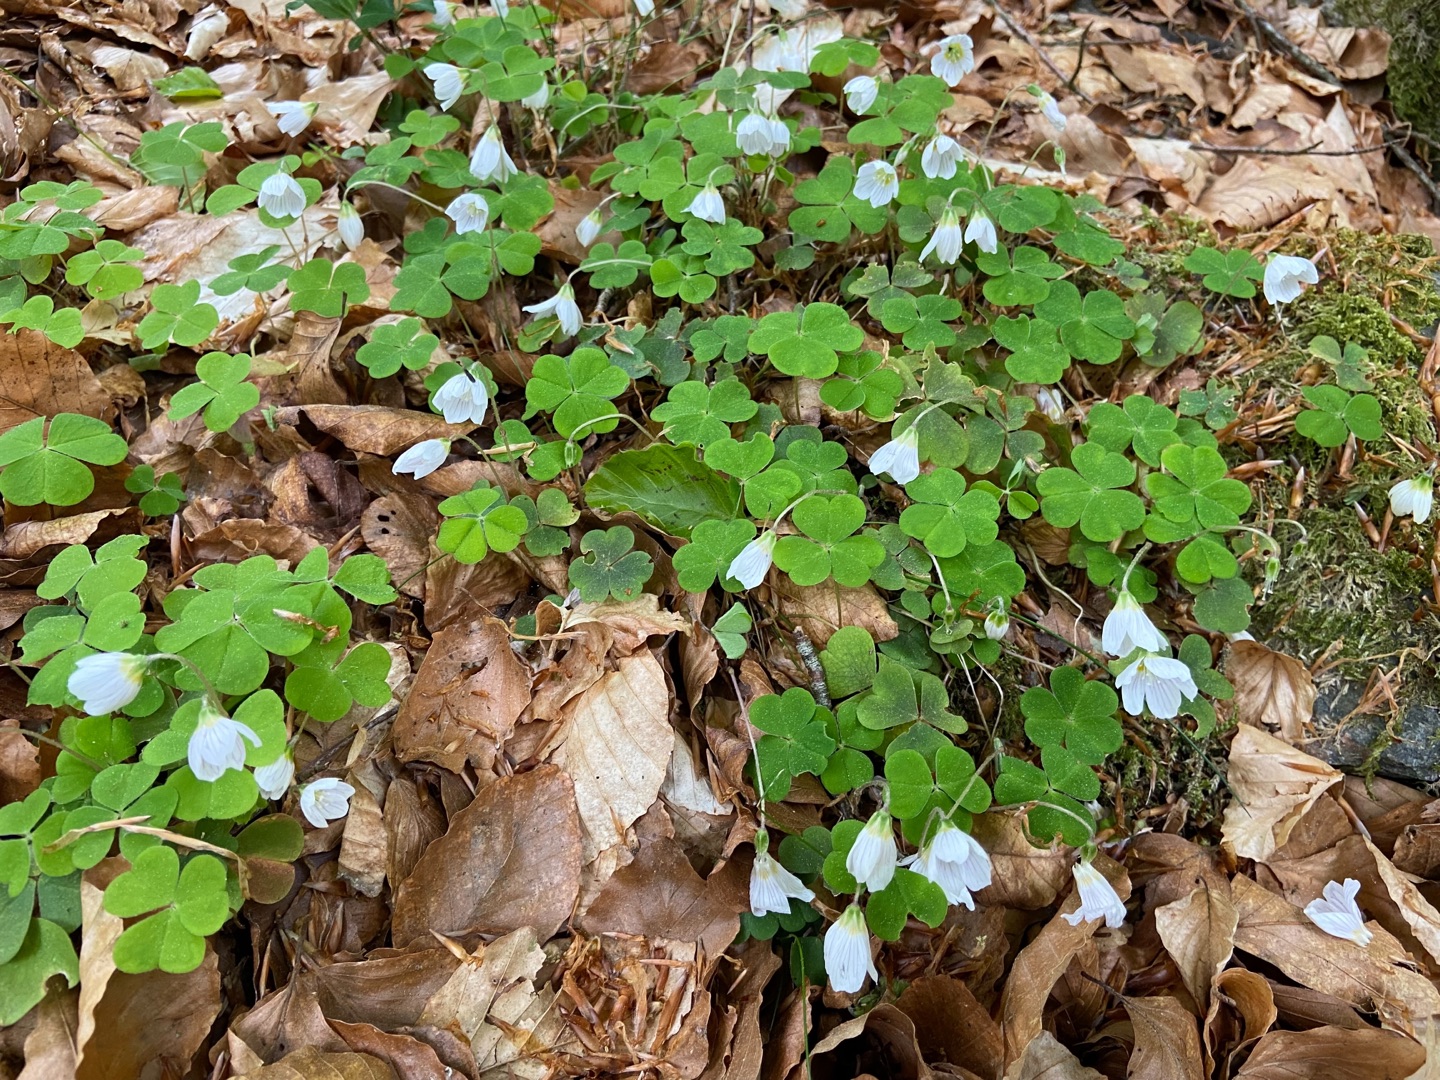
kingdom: Plantae
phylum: Tracheophyta
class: Magnoliopsida
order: Oxalidales
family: Oxalidaceae
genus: Oxalis
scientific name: Oxalis acetosella
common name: Skovsyre
